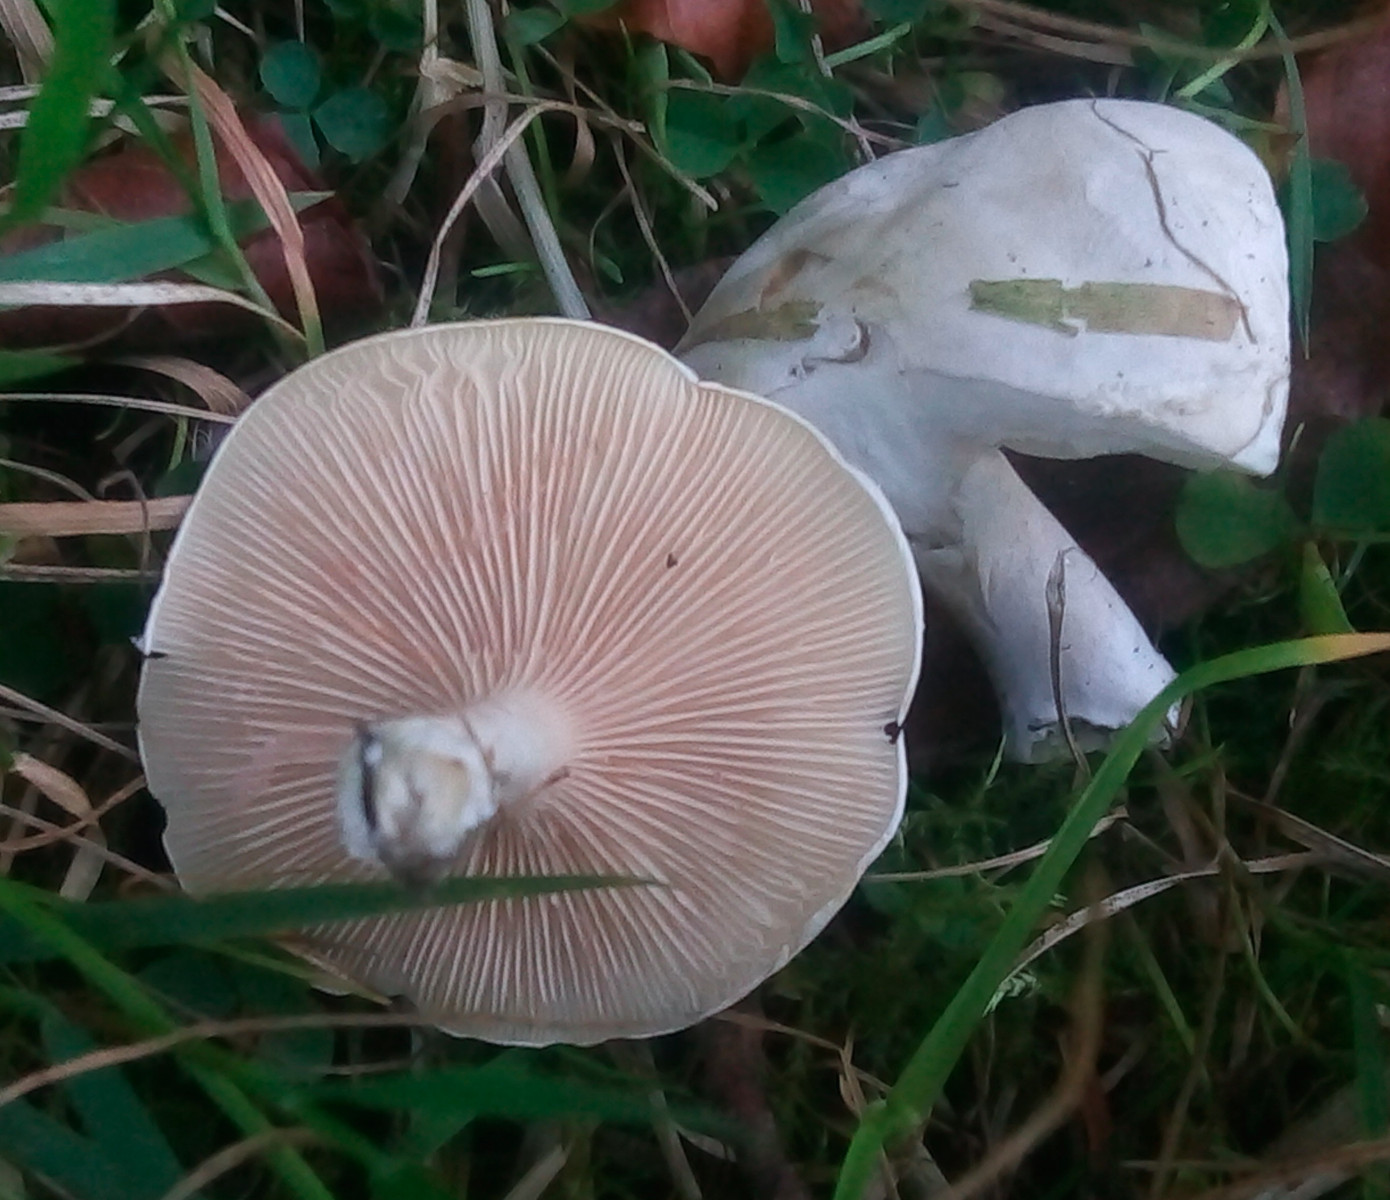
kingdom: Fungi
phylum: Basidiomycota
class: Agaricomycetes
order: Agaricales
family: Entolomataceae
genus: Clitopilus
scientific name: Clitopilus prunulus
